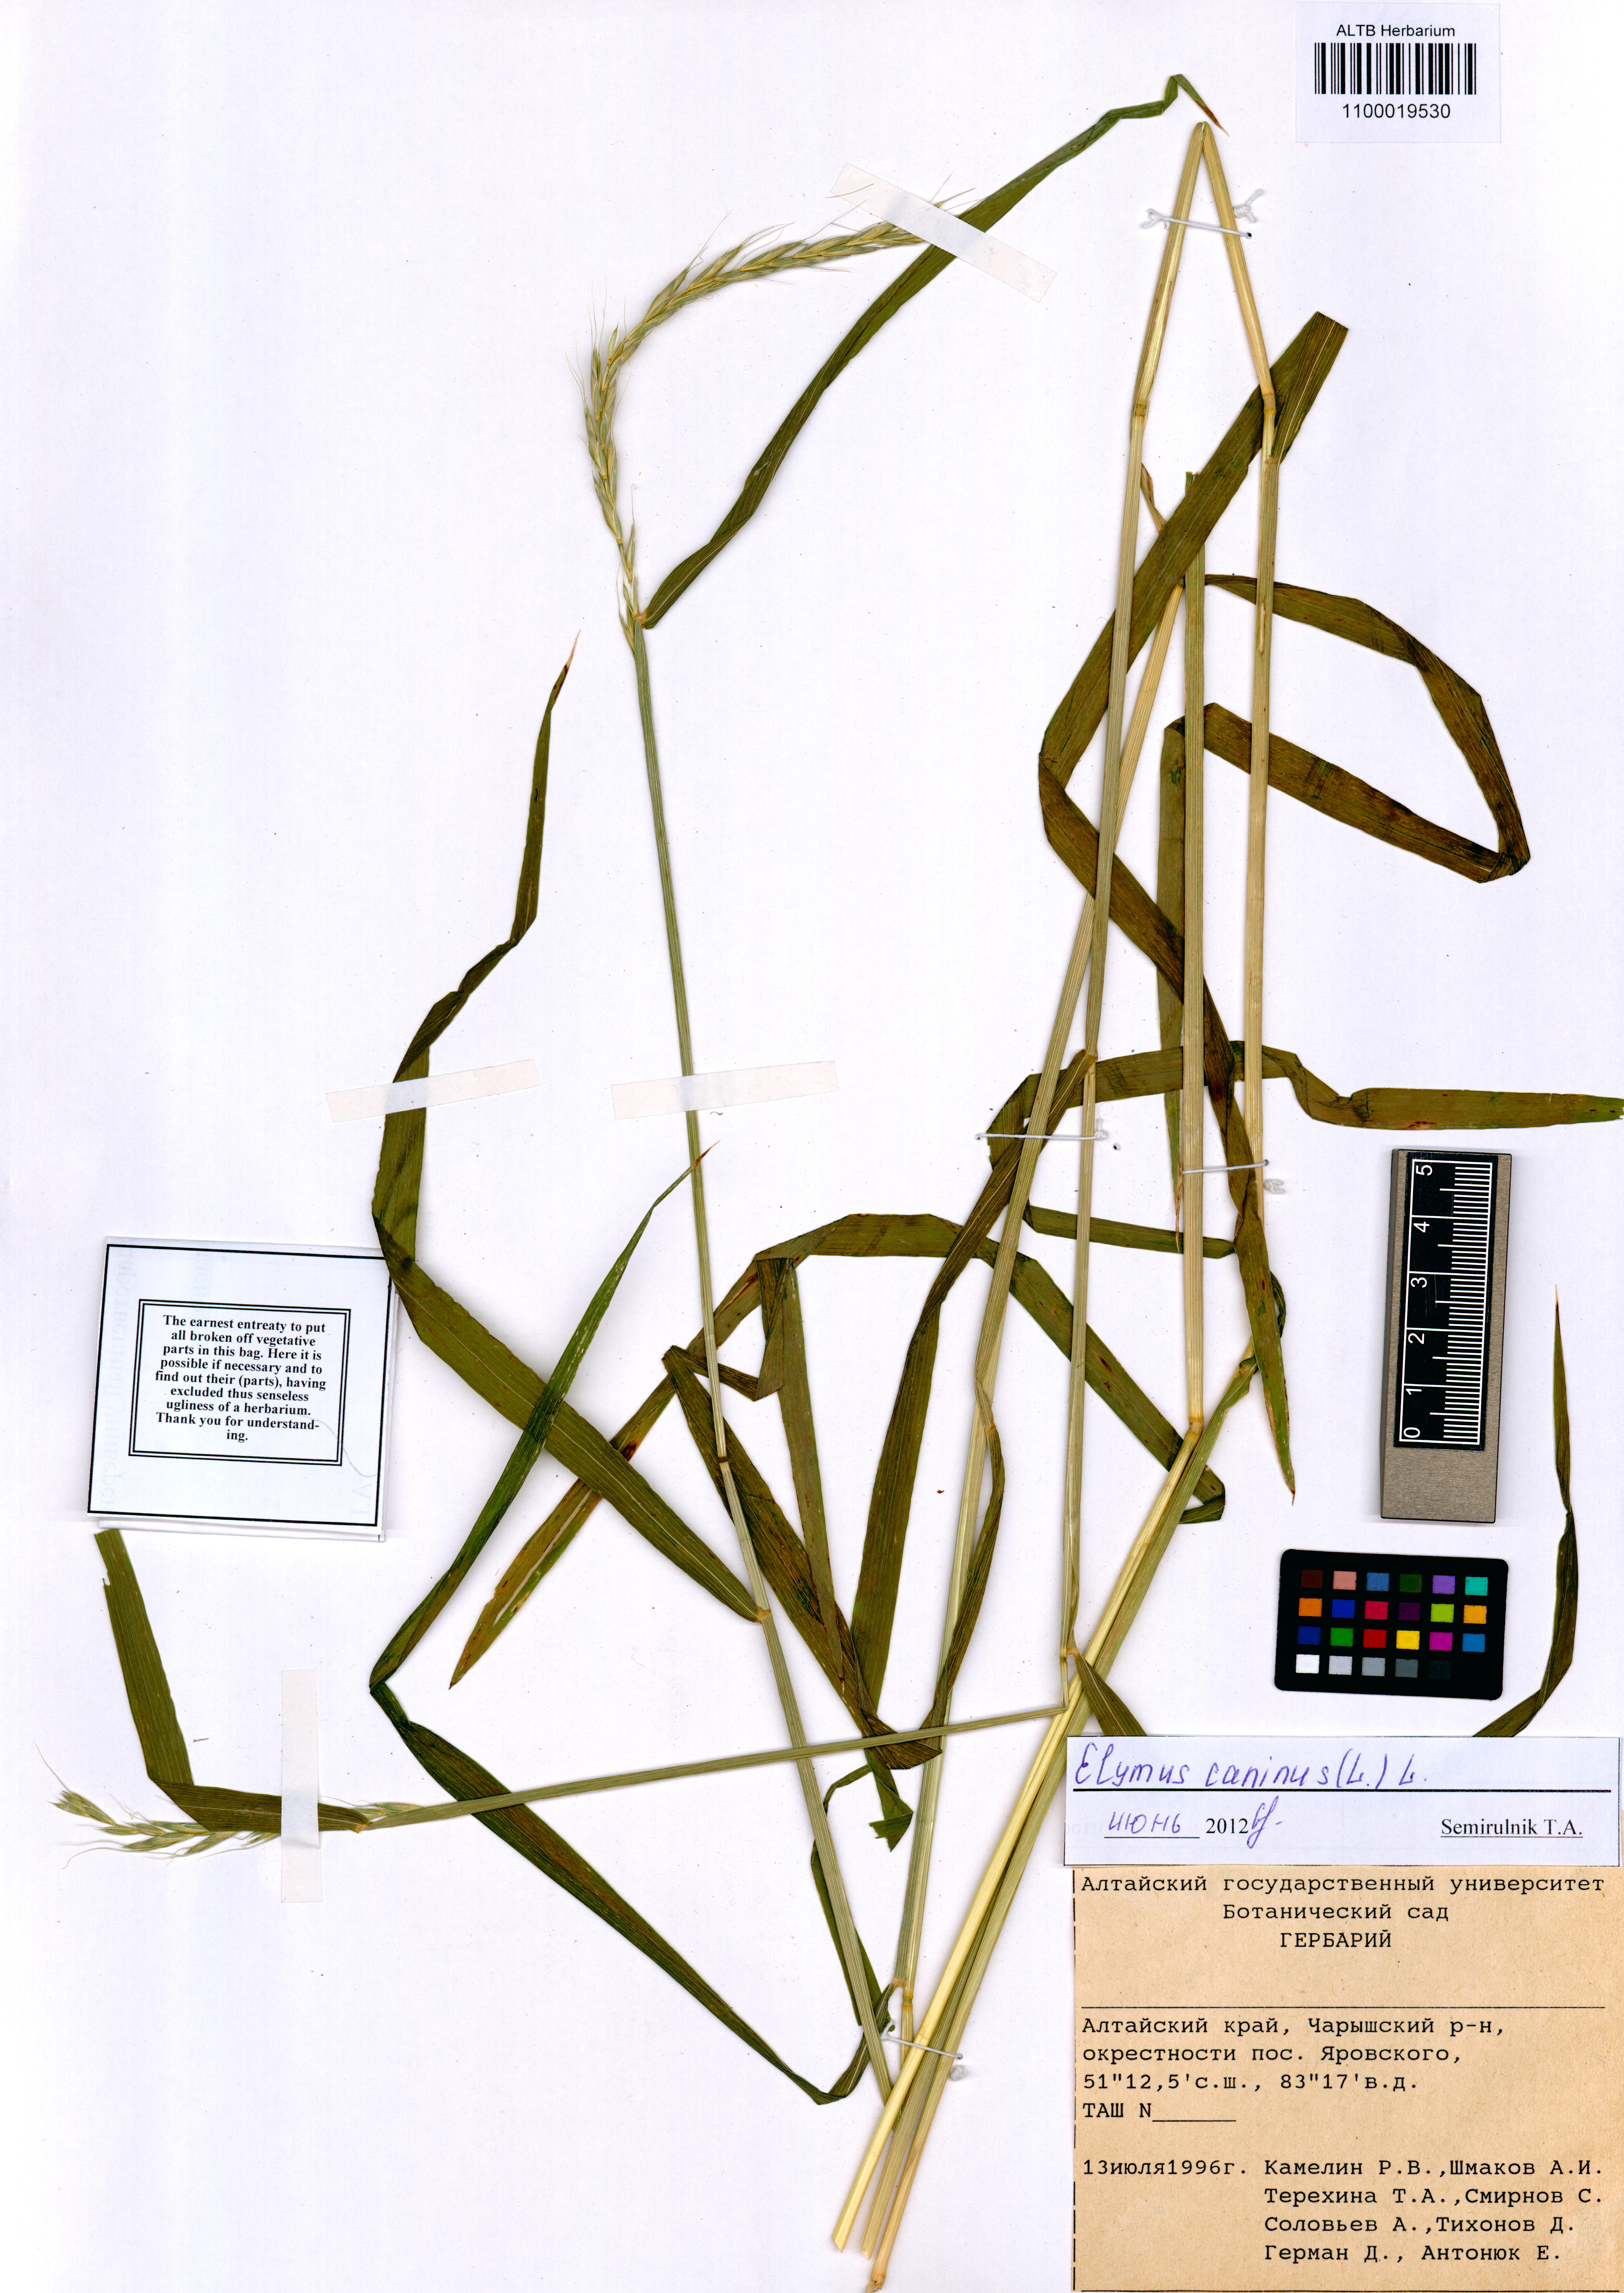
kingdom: Plantae
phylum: Tracheophyta
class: Liliopsida
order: Poales
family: Poaceae
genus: Elymus
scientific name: Elymus caninus
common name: Bearded couch
